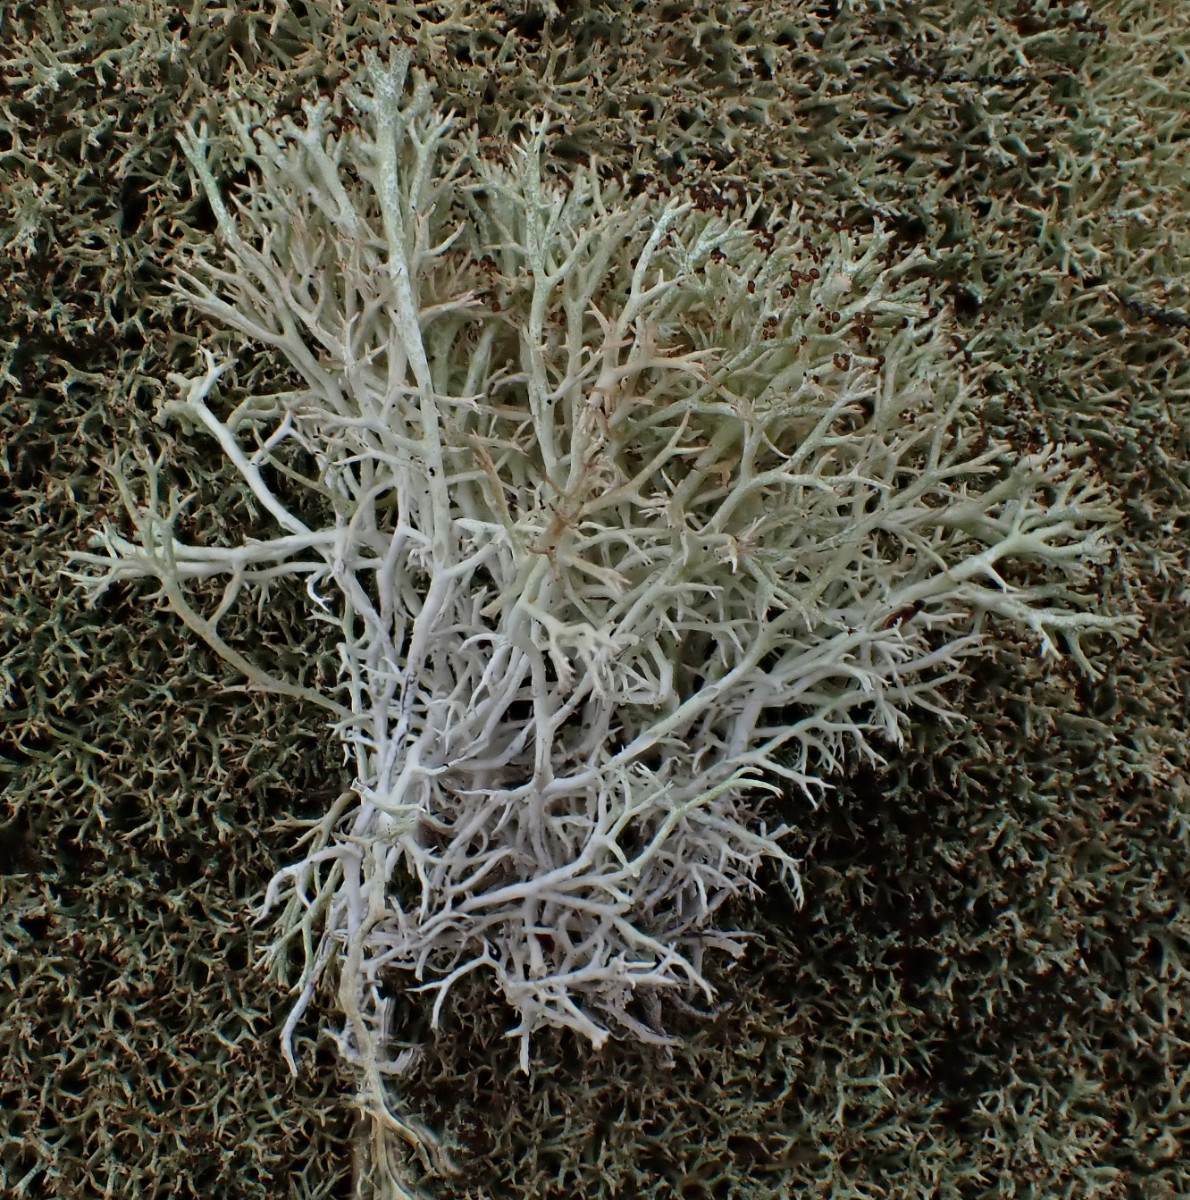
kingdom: Fungi
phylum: Ascomycota
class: Lecanoromycetes
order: Lecanorales
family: Cladoniaceae
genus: Cladonia
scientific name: Cladonia rangiformis
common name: spættet bægerlav
